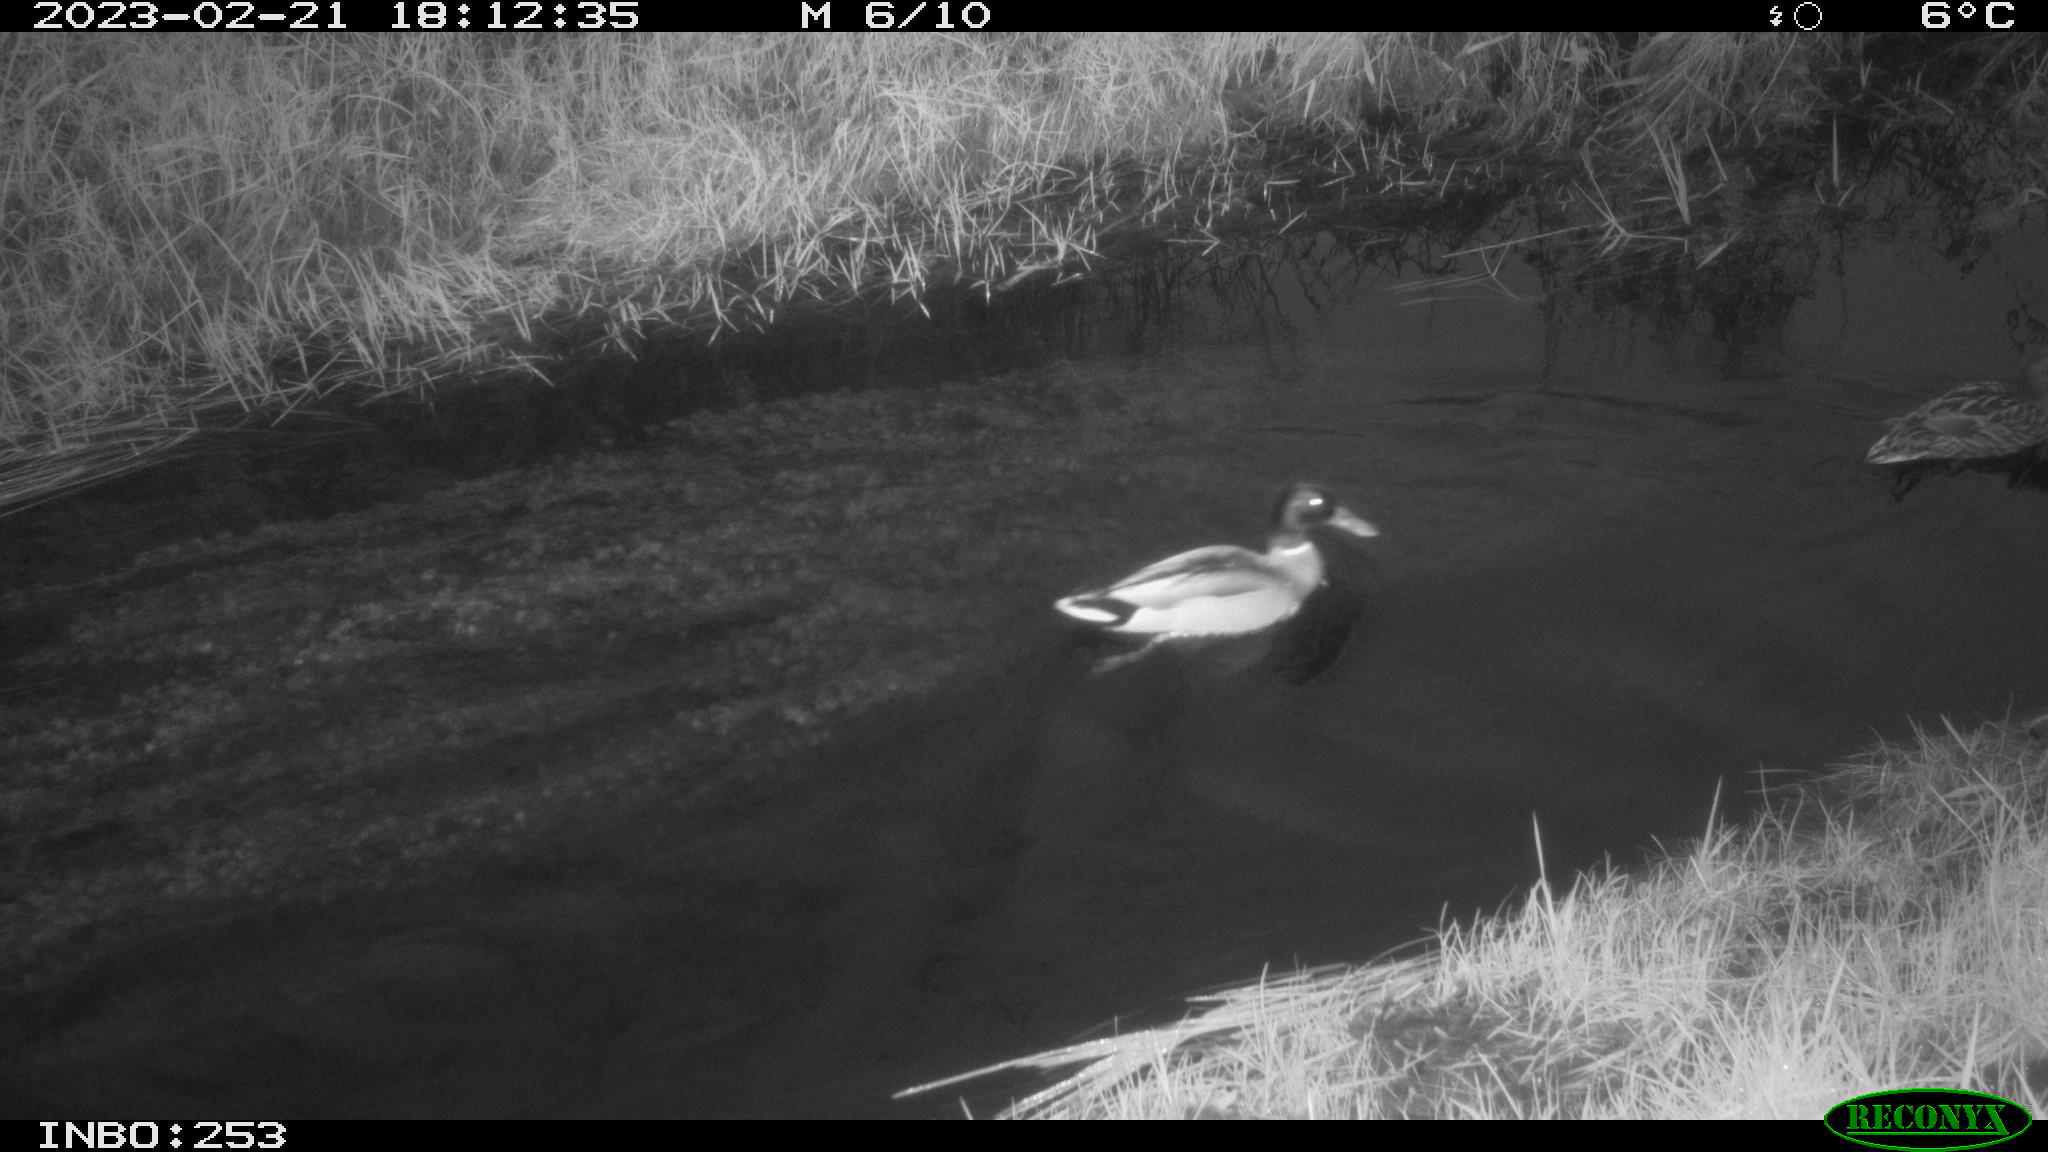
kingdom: Animalia
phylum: Chordata
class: Aves
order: Anseriformes
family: Anatidae
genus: Anas
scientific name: Anas
